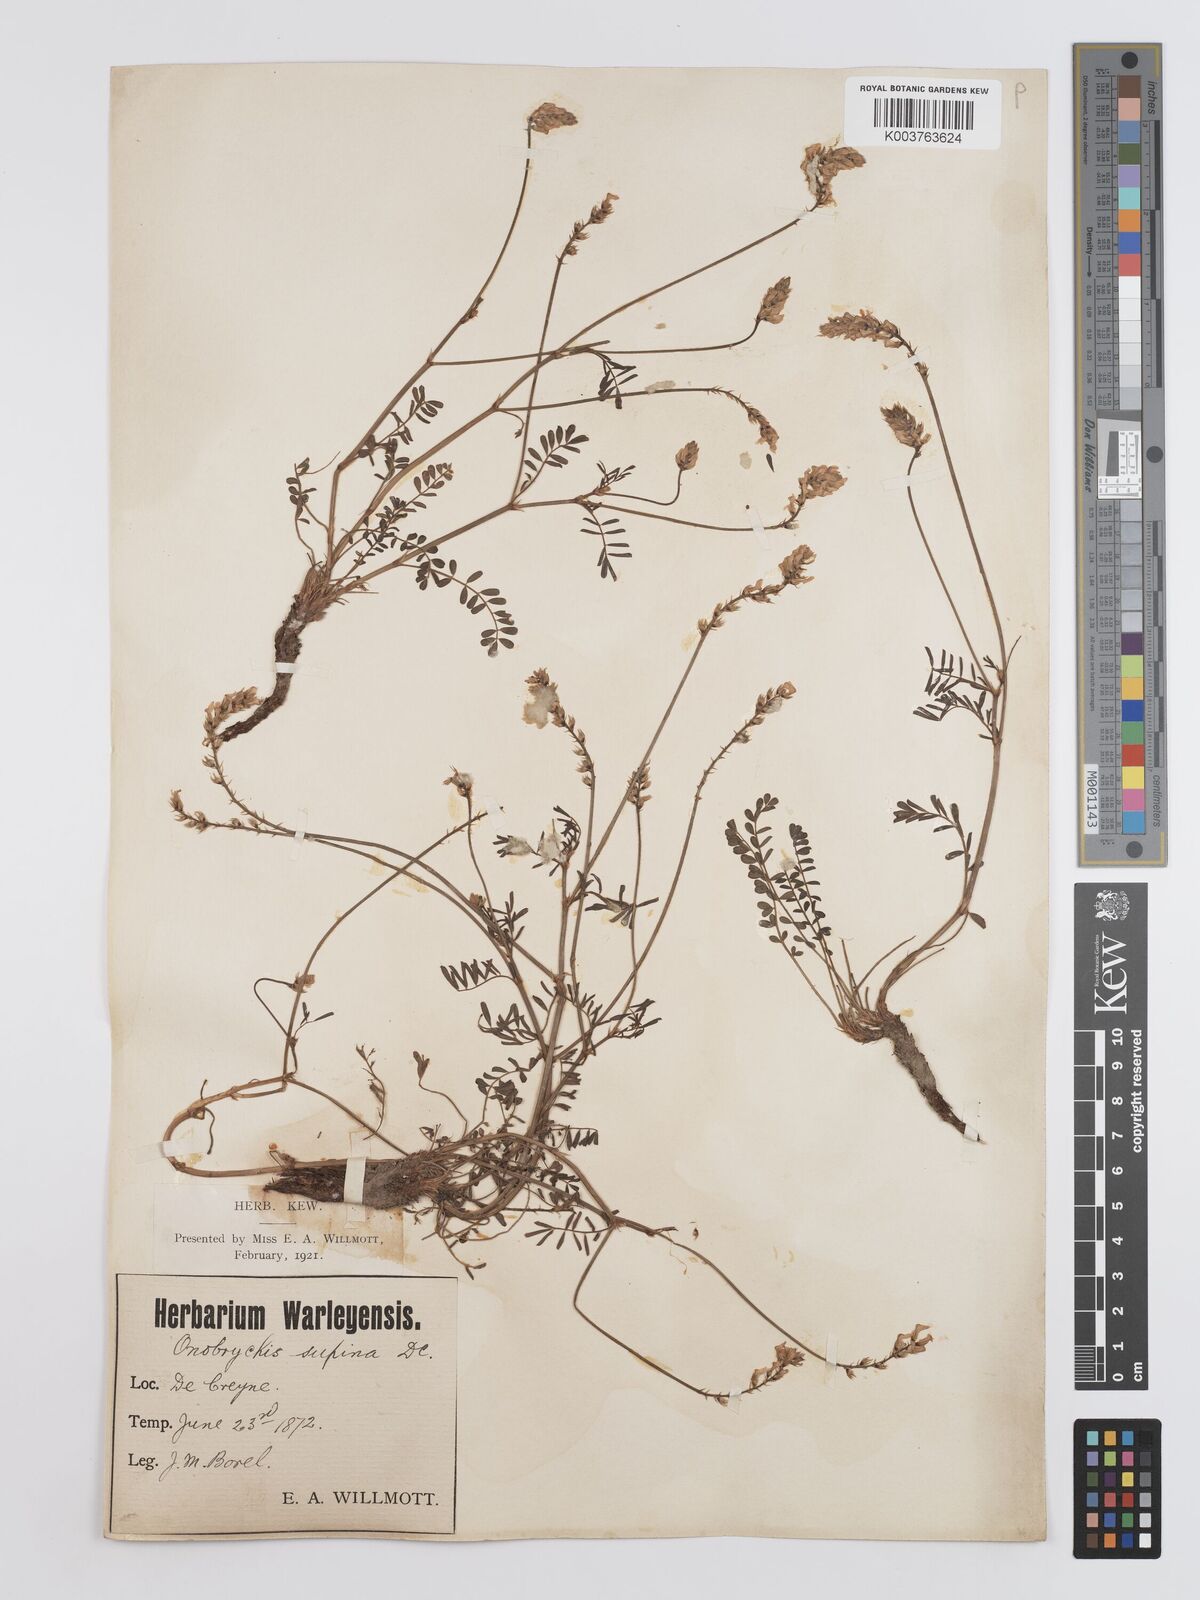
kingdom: Plantae
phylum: Tracheophyta
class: Magnoliopsida
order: Fabales
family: Fabaceae
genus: Onobrychis
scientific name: Onobrychis supina
